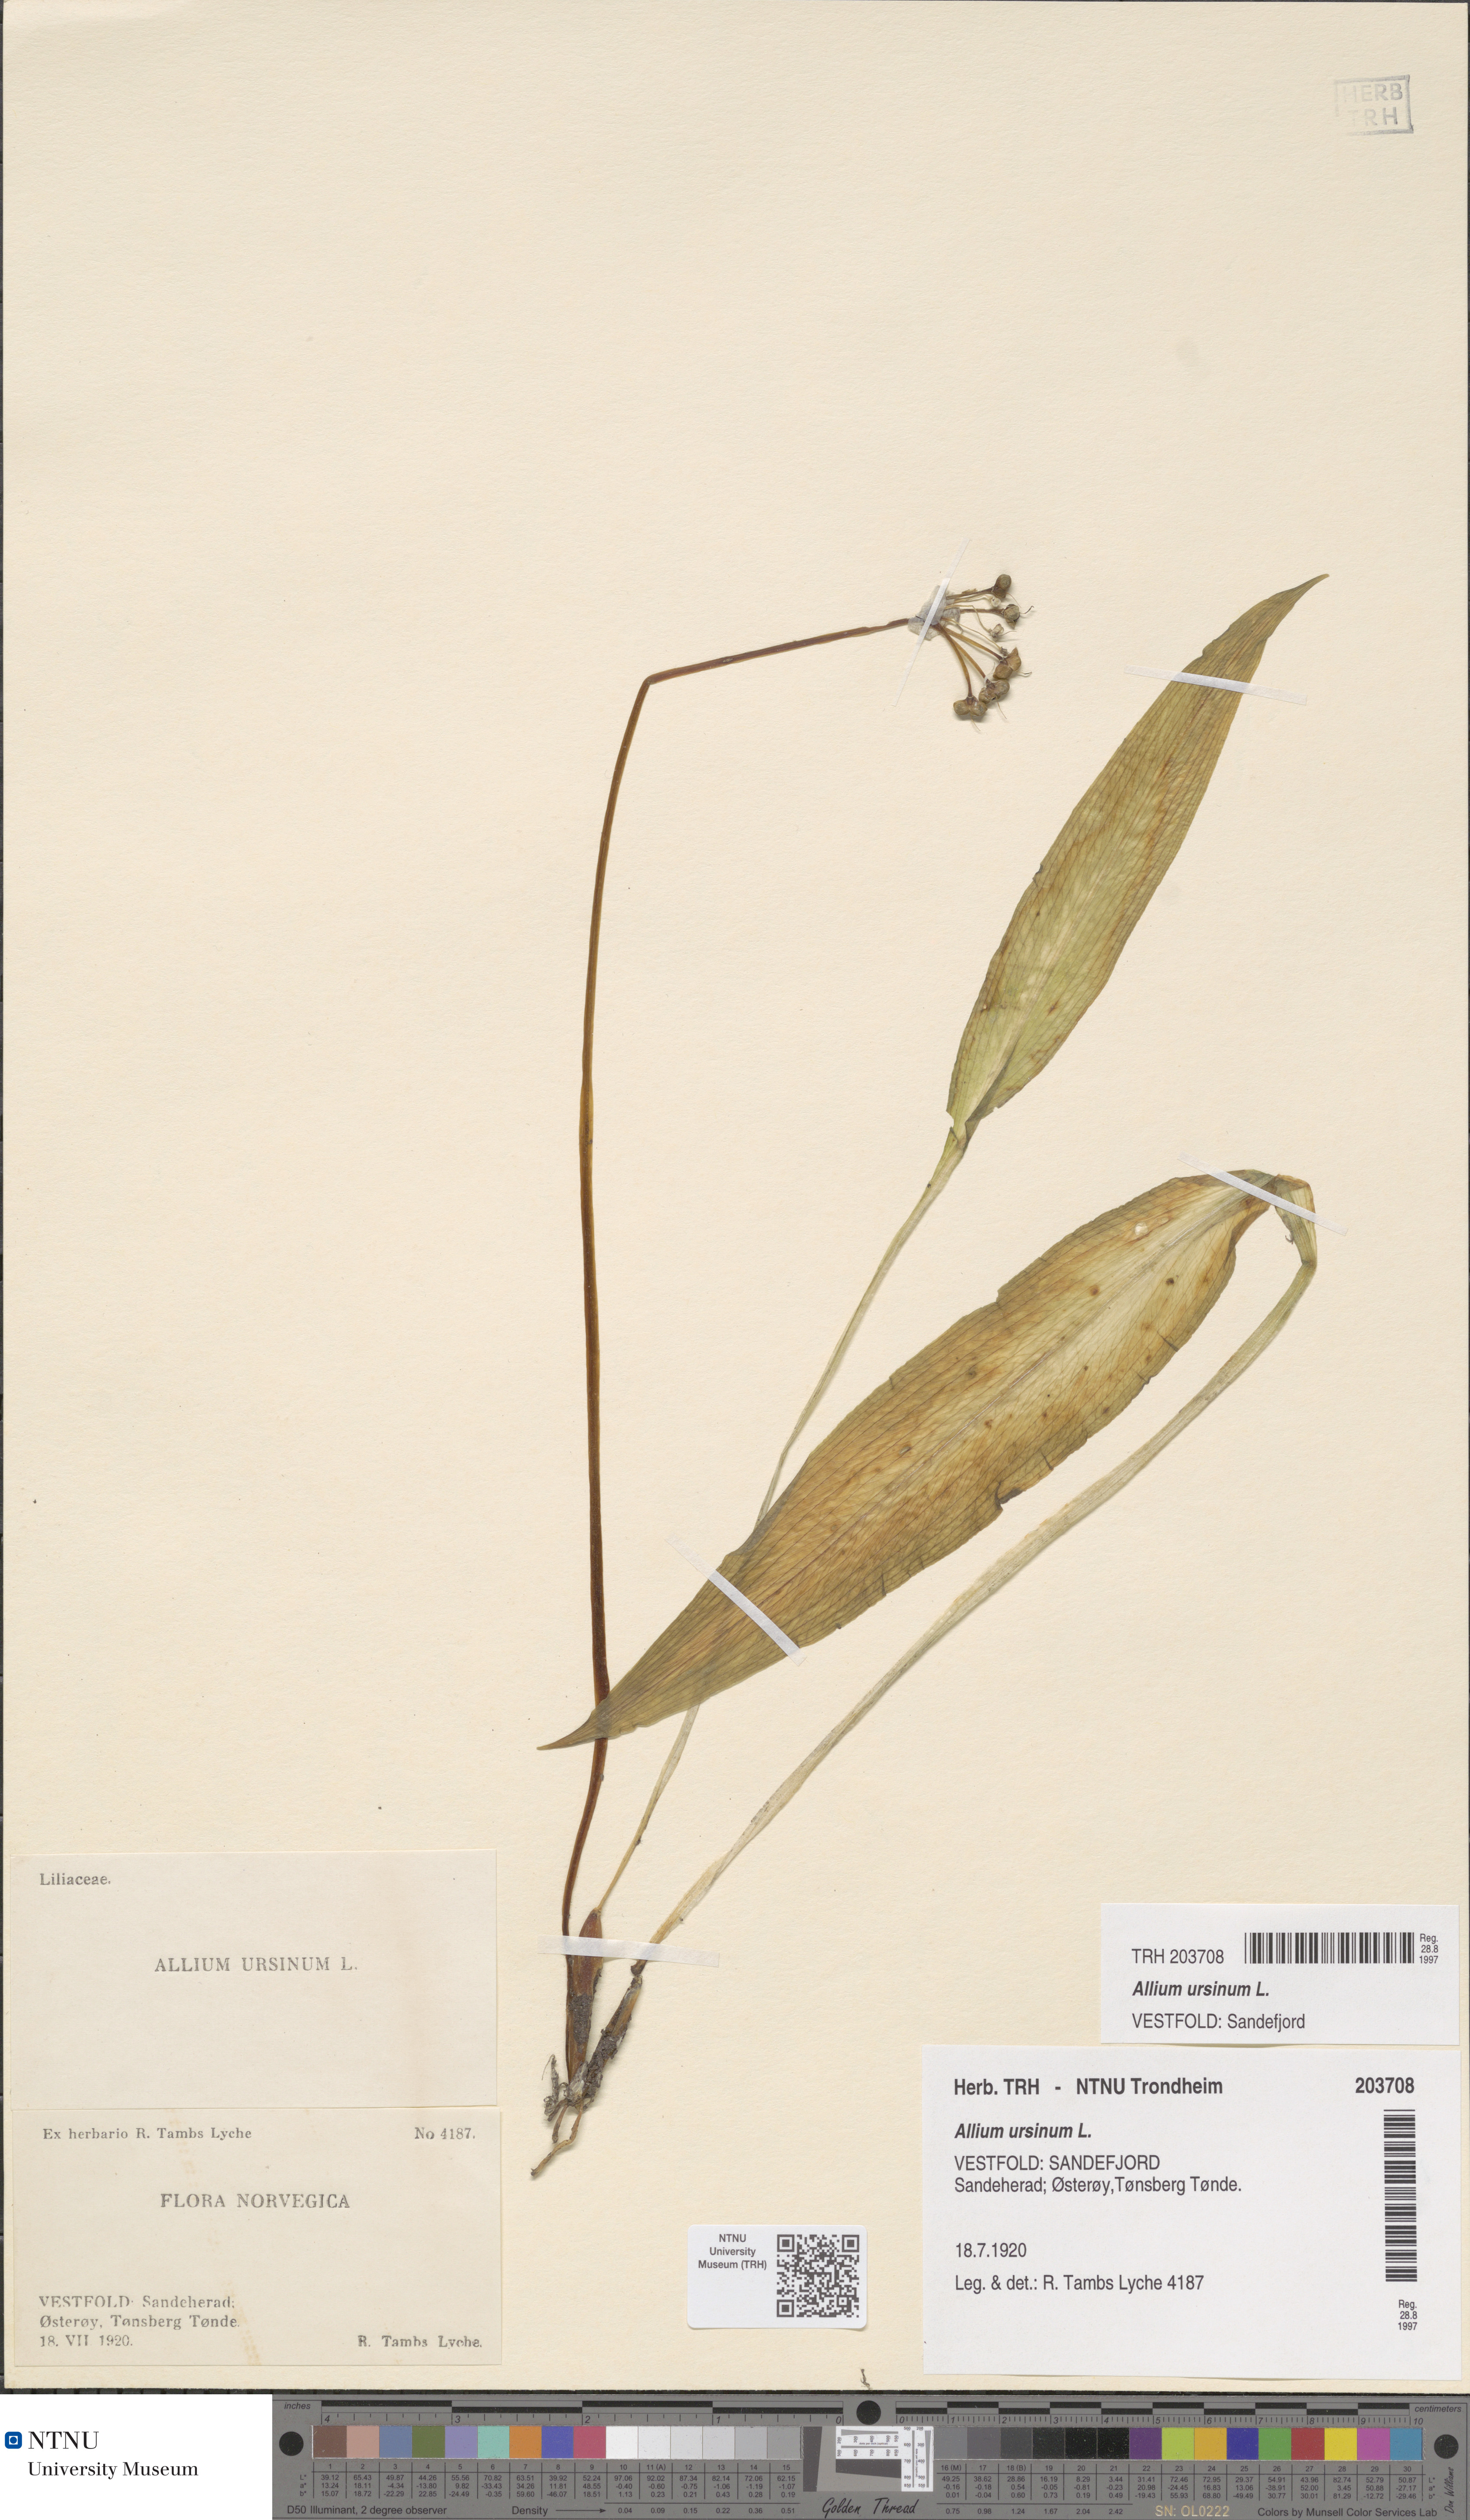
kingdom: Plantae
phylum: Tracheophyta
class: Liliopsida
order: Asparagales
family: Amaryllidaceae
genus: Allium
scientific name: Allium ursinum
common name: Ramsons
